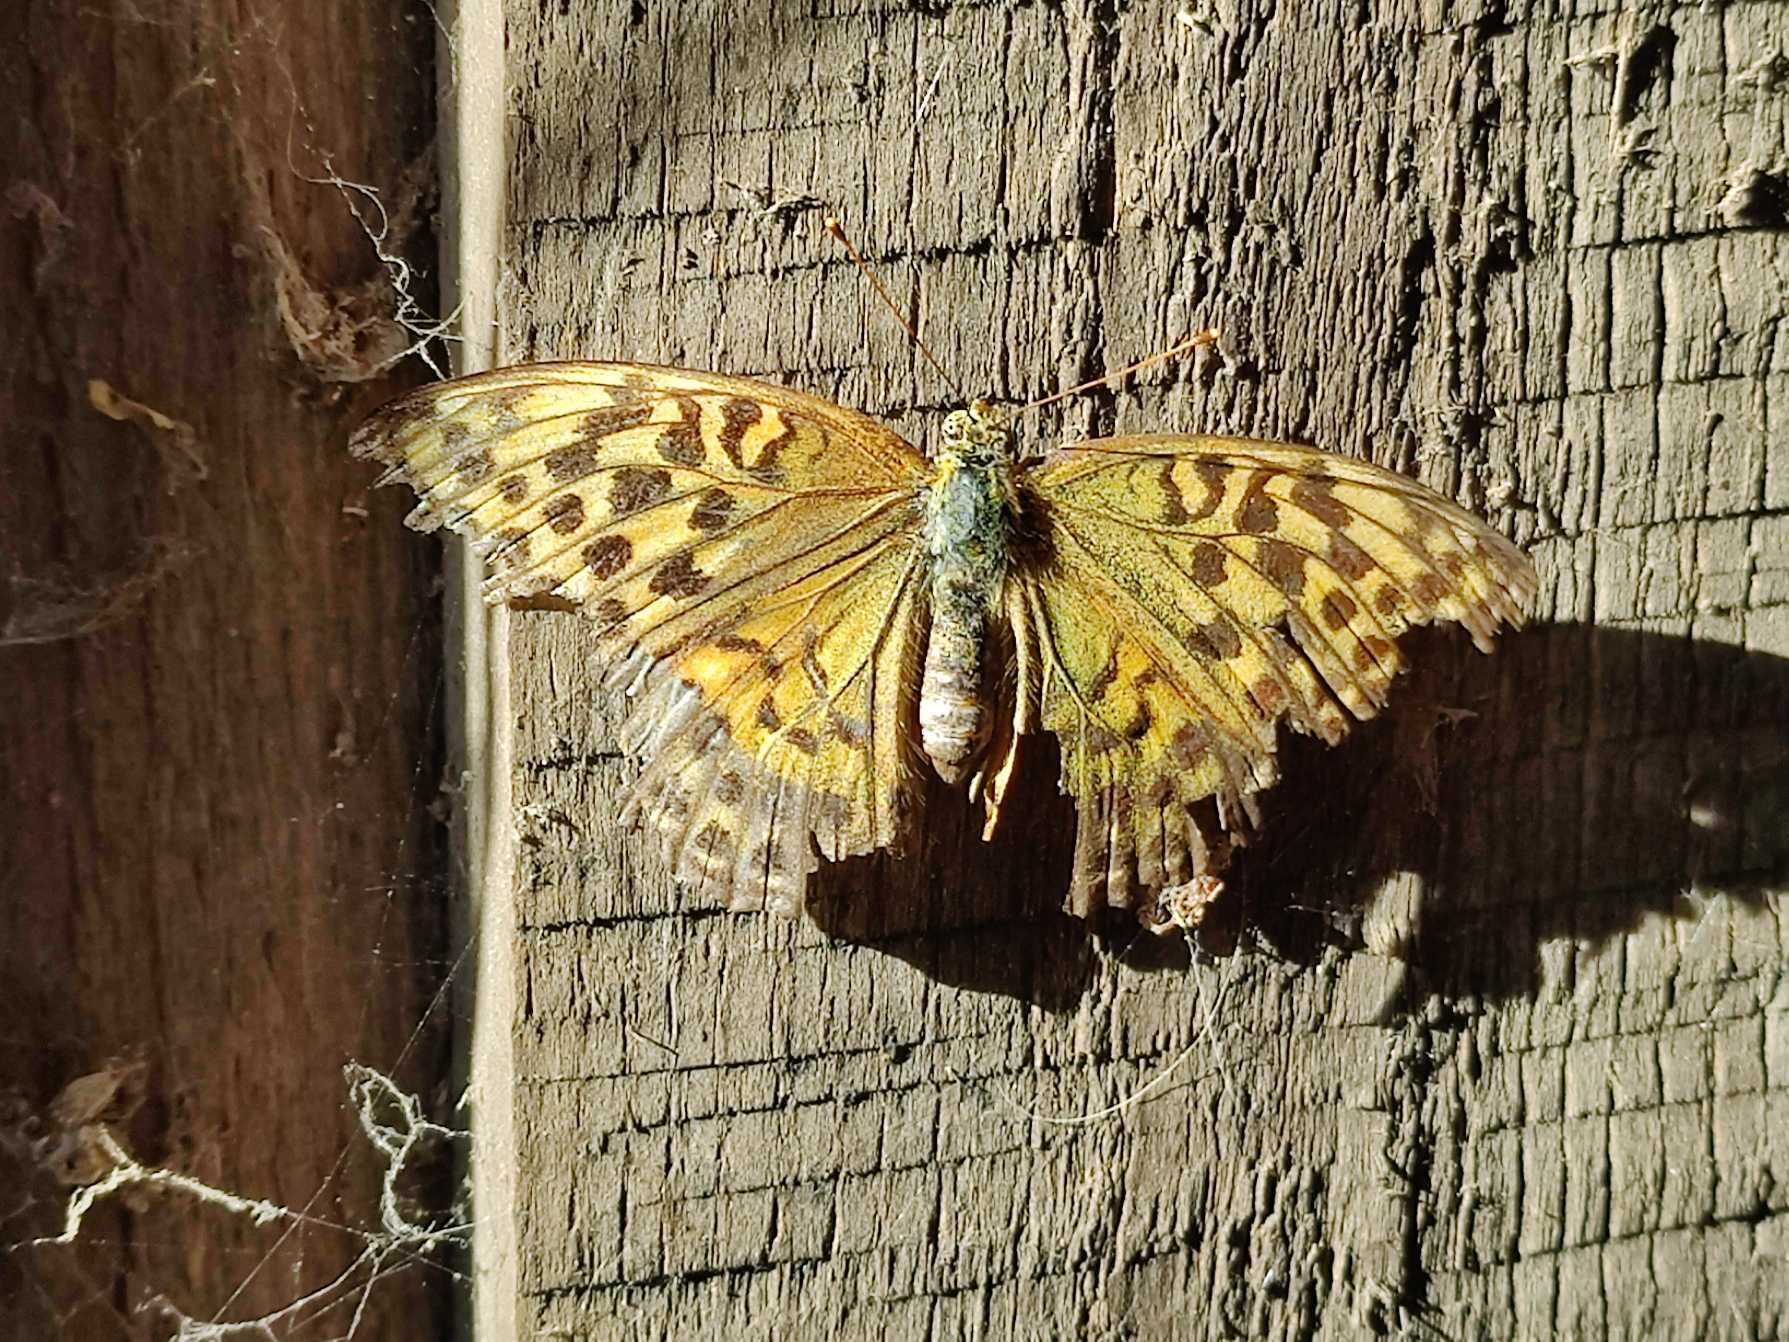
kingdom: Animalia
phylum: Arthropoda
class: Insecta
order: Lepidoptera
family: Nymphalidae
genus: Argynnis
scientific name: Argynnis paphia
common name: Kejserkåbe
